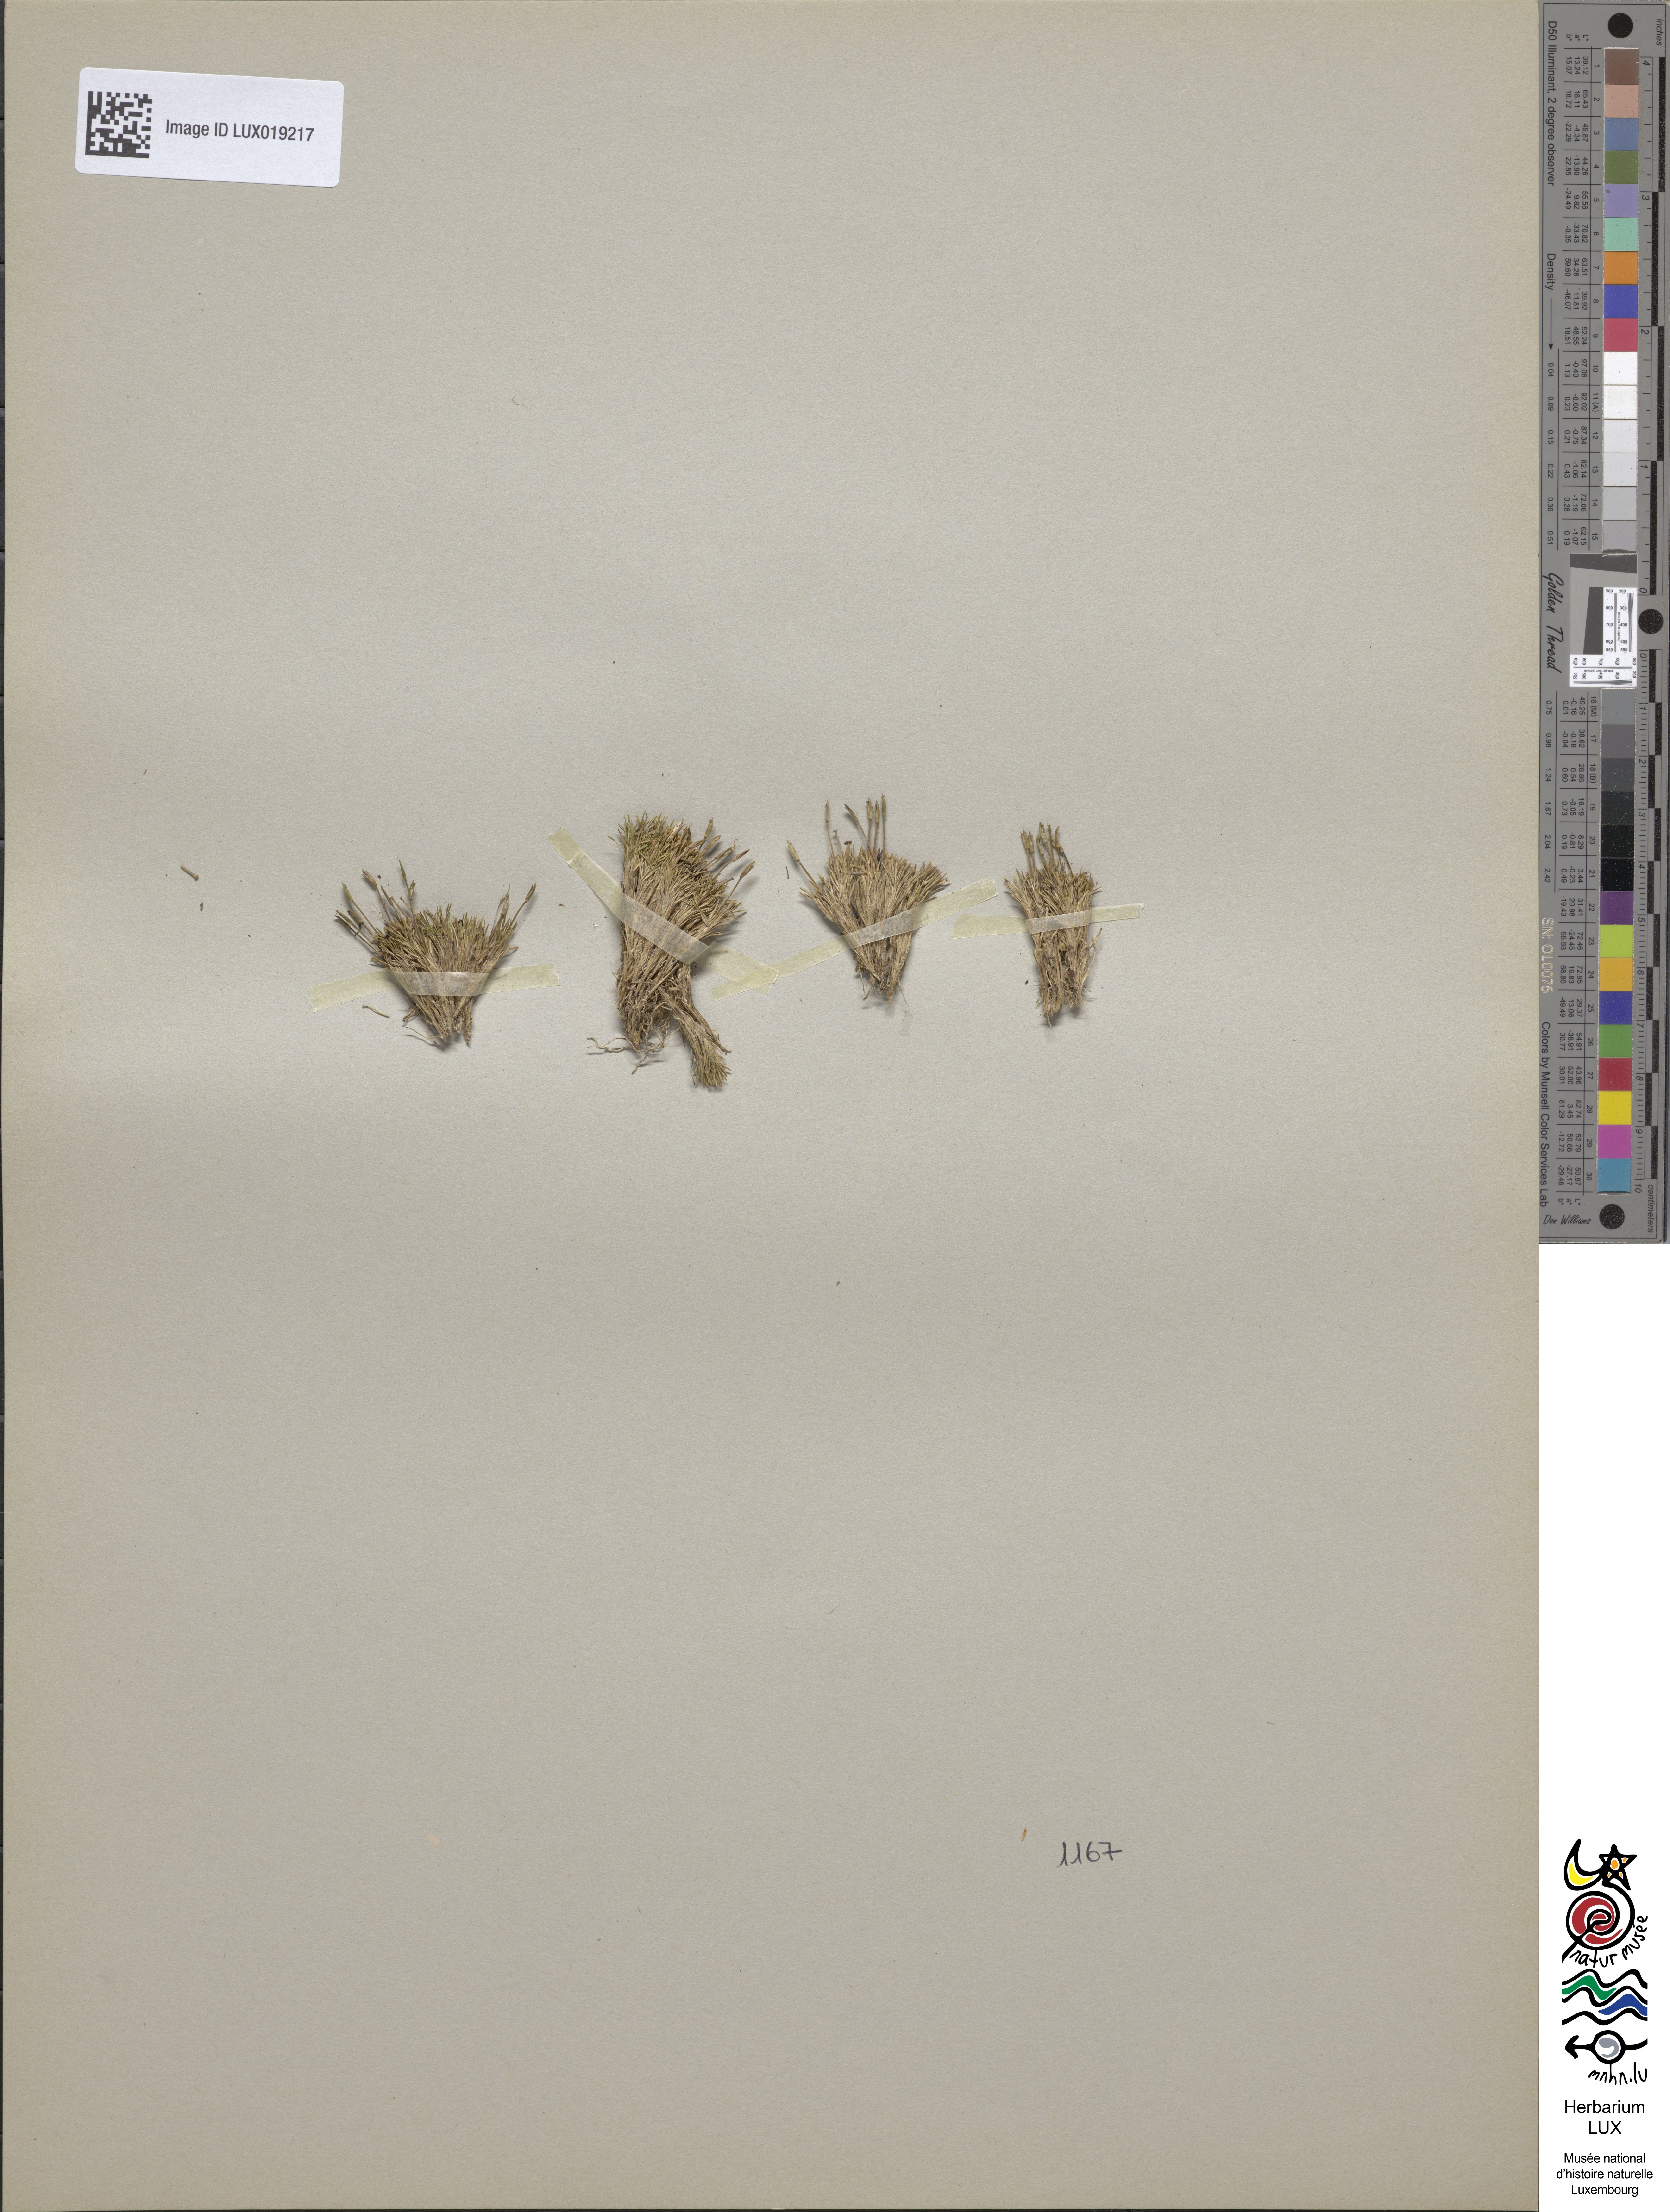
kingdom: Plantae
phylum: Tracheophyta
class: Liliopsida
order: Poales
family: Restionaceae
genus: Centrolepis
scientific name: Centrolepis philippinensis
